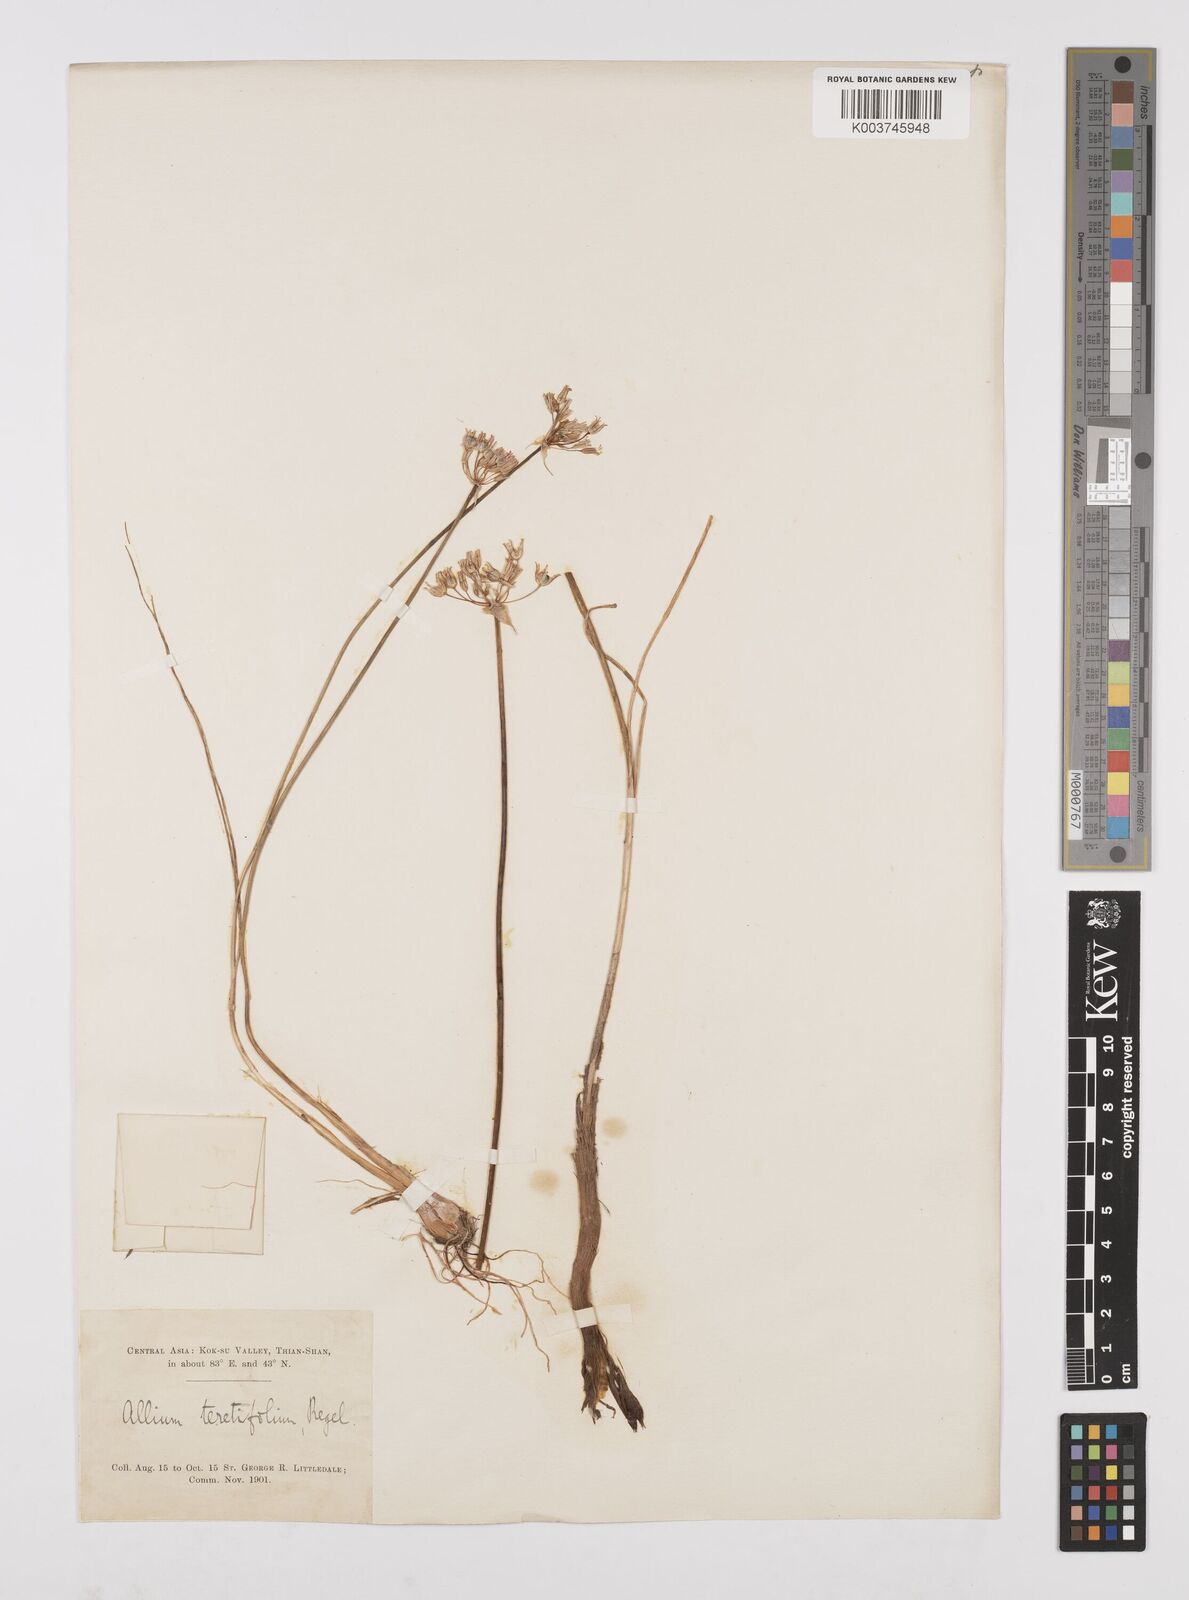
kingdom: Plantae
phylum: Tracheophyta
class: Liliopsida
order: Asparagales
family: Amaryllidaceae
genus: Allium
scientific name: Allium teretifolium
